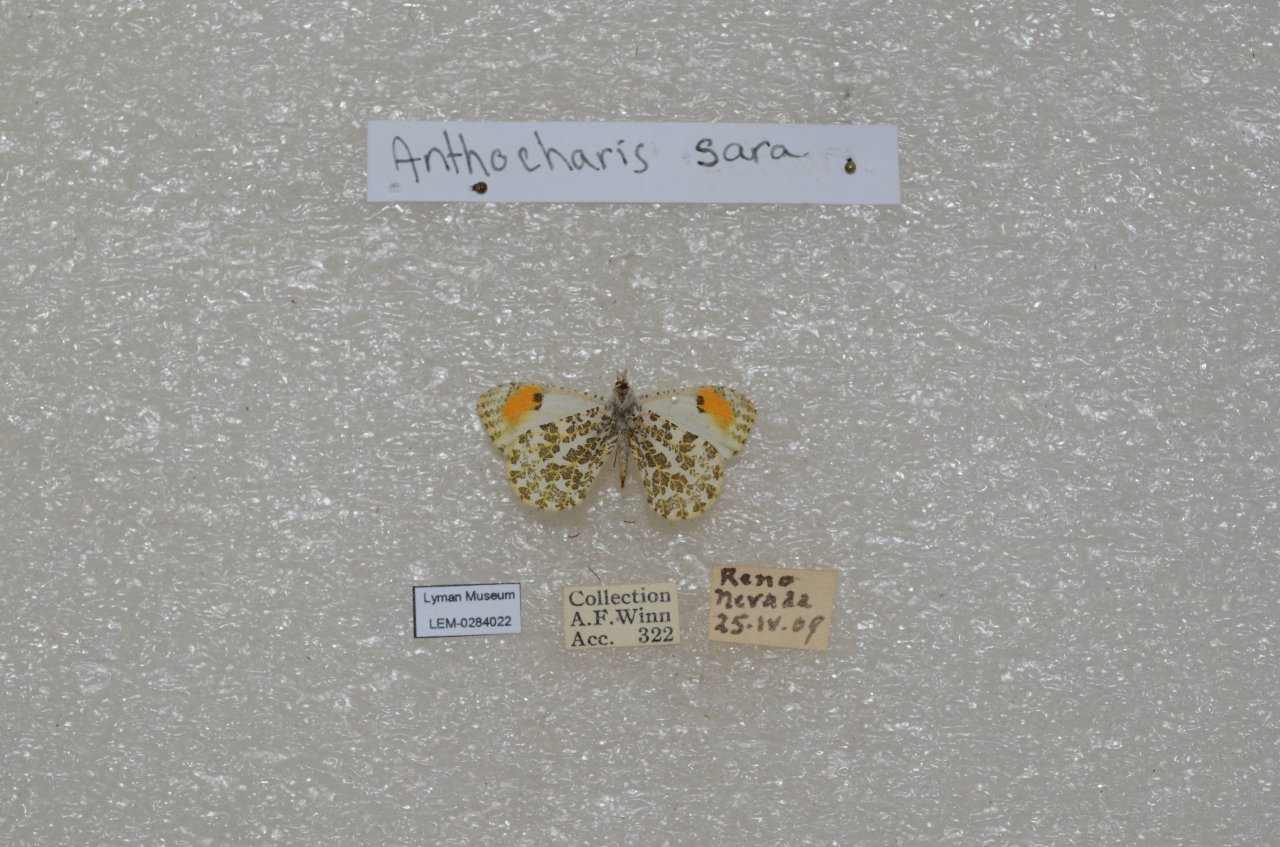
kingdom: Animalia
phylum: Arthropoda
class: Insecta
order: Lepidoptera
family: Pieridae
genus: Anthocharis
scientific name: Anthocharis sara
